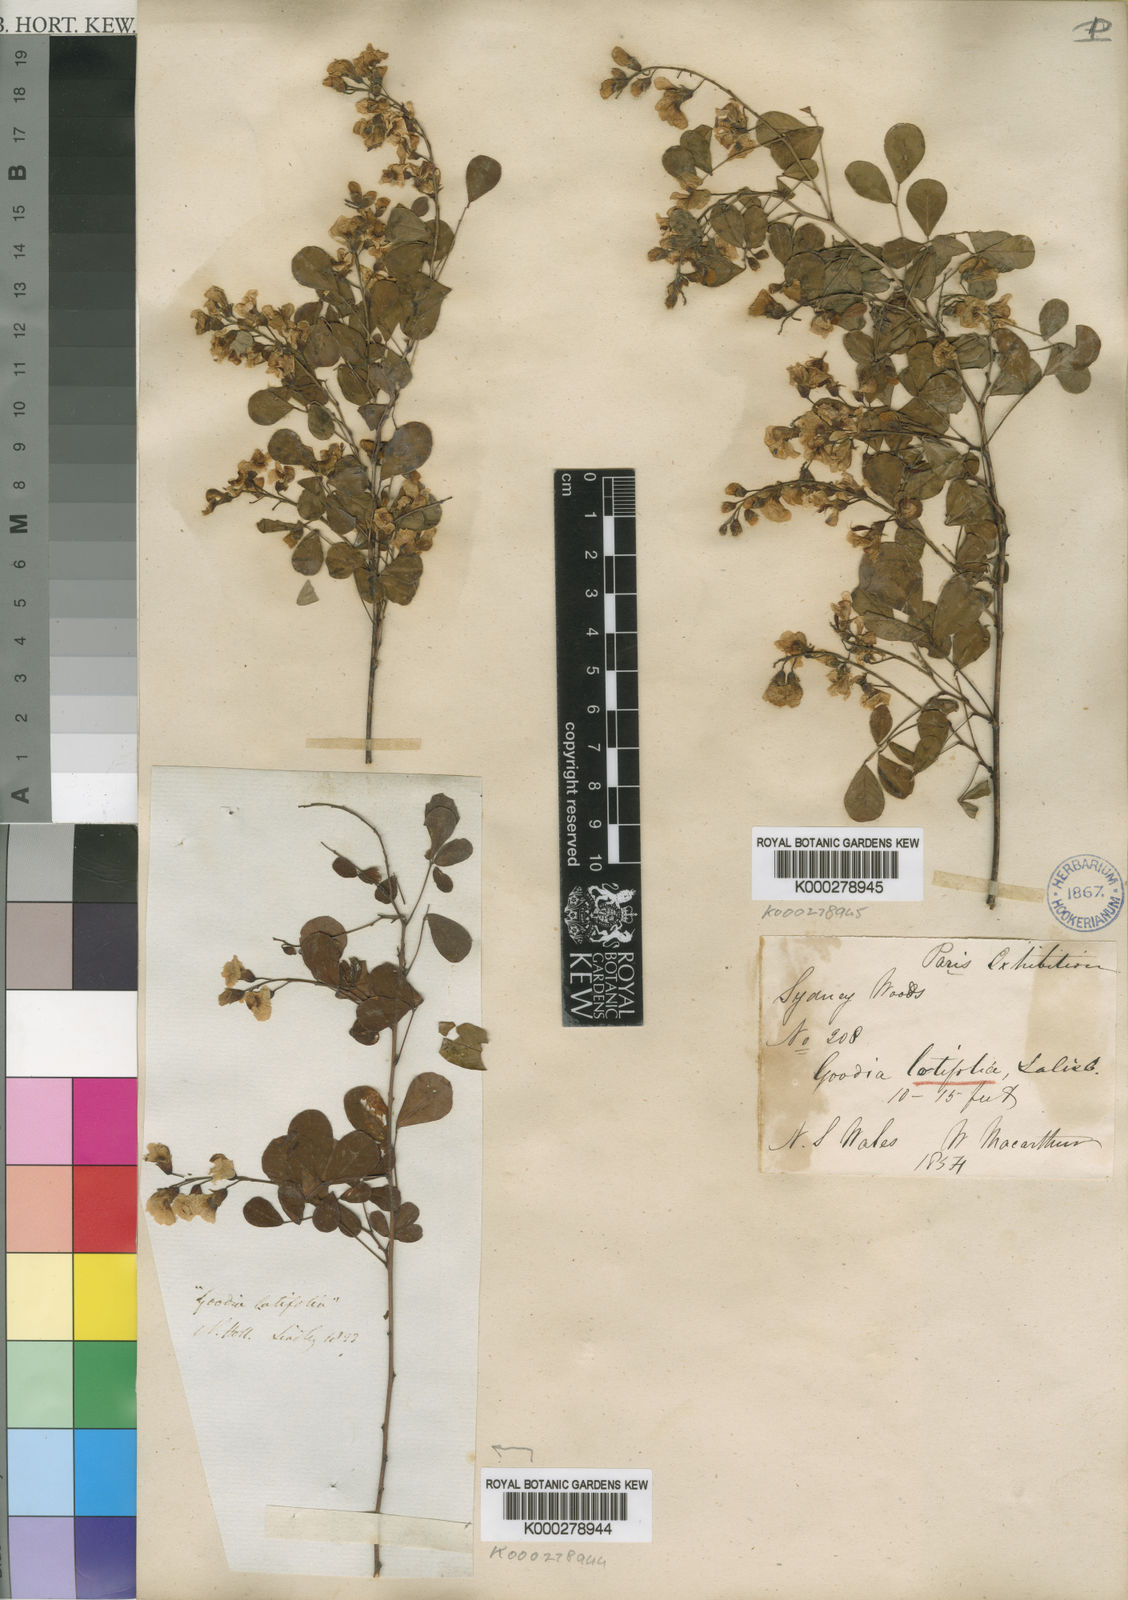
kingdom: Plantae
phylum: Tracheophyta
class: Magnoliopsida
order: Fabales
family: Fabaceae
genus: Goodia
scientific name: Goodia lotifolia
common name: Cloverleaf-poison
